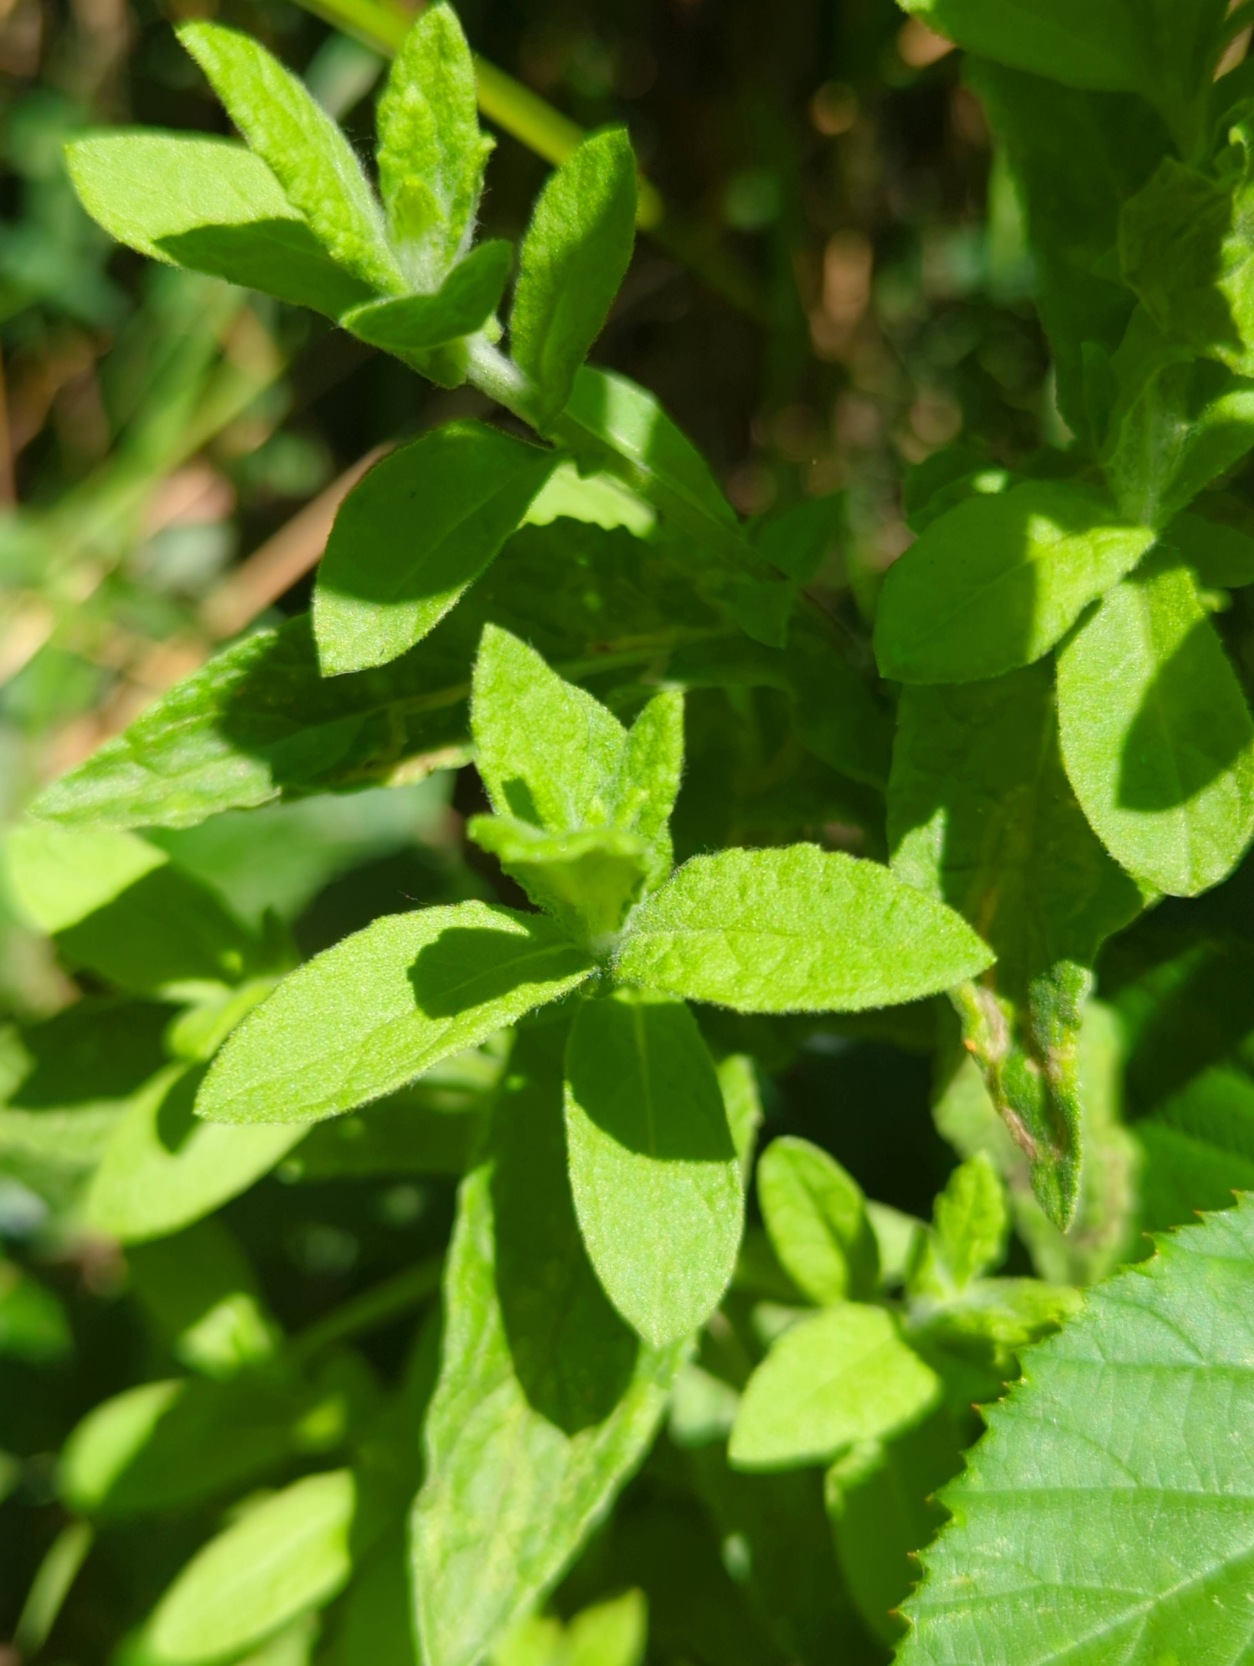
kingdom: Plantae
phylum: Tracheophyta
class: Magnoliopsida
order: Asterales
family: Asteraceae
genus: Pulicaria
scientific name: Pulicaria dysenterica
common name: Strand-loppeurt
